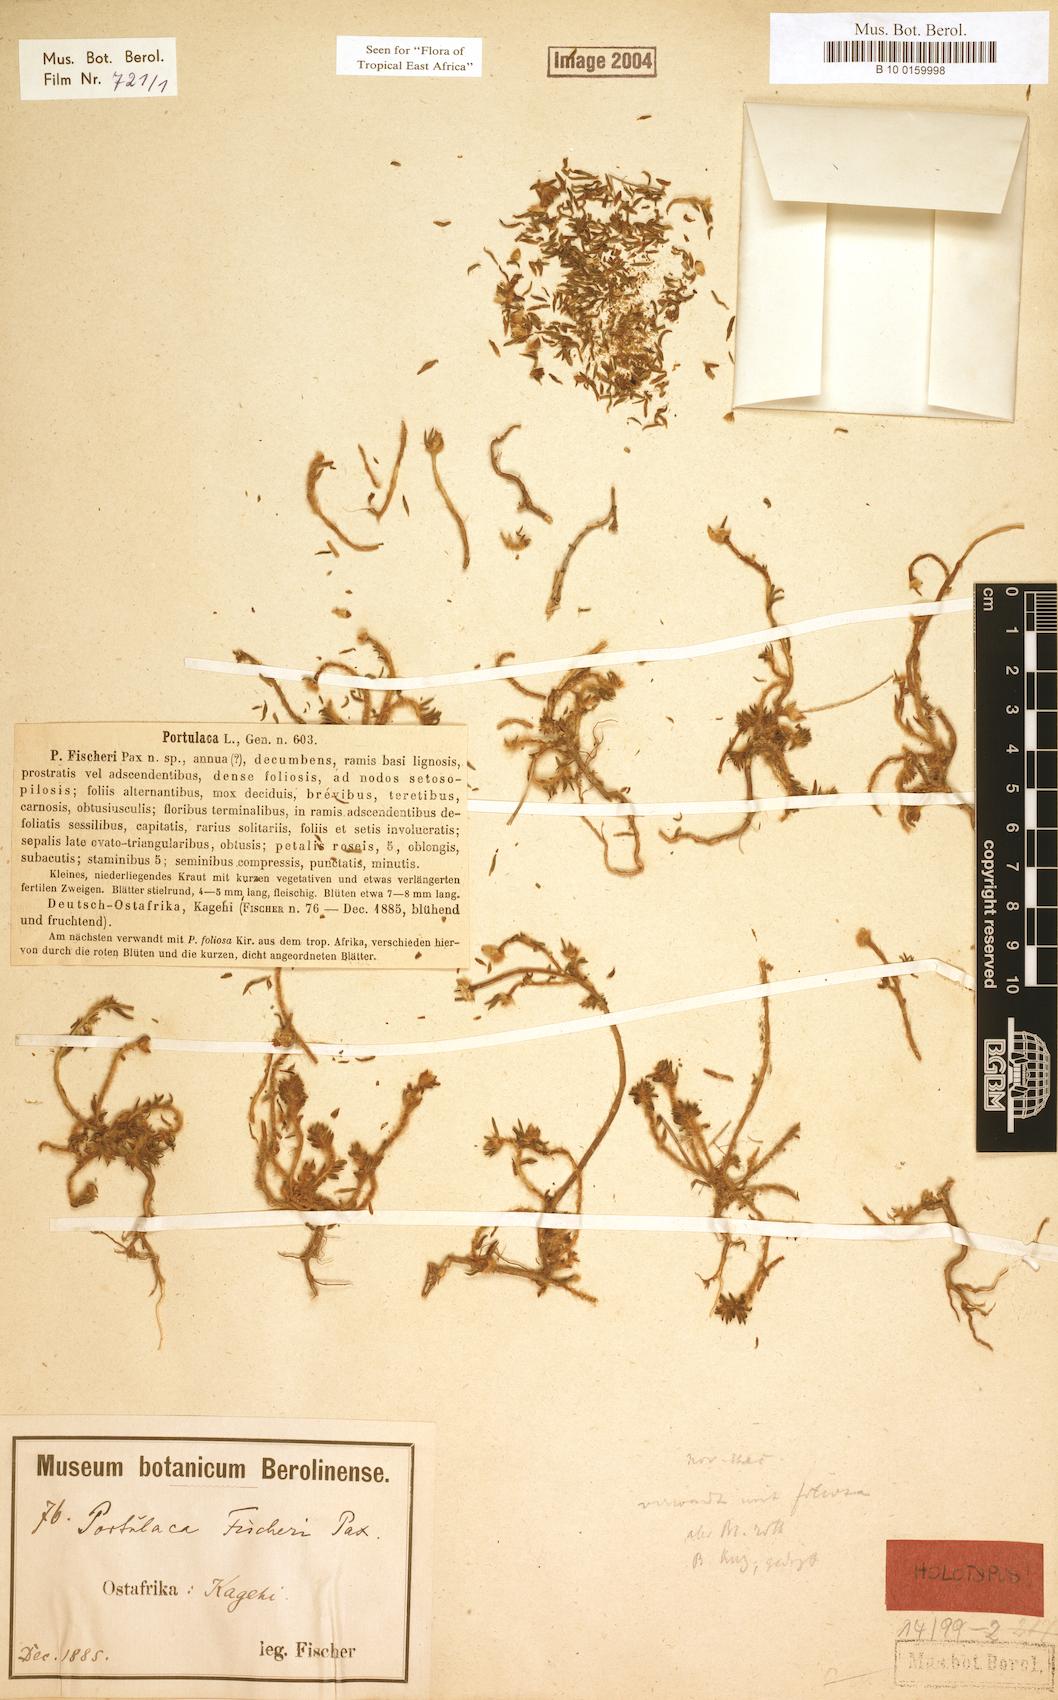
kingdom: Plantae
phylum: Tracheophyta
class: Magnoliopsida
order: Caryophyllales
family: Portulacaceae
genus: Portulaca
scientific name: Portulaca fischeri
